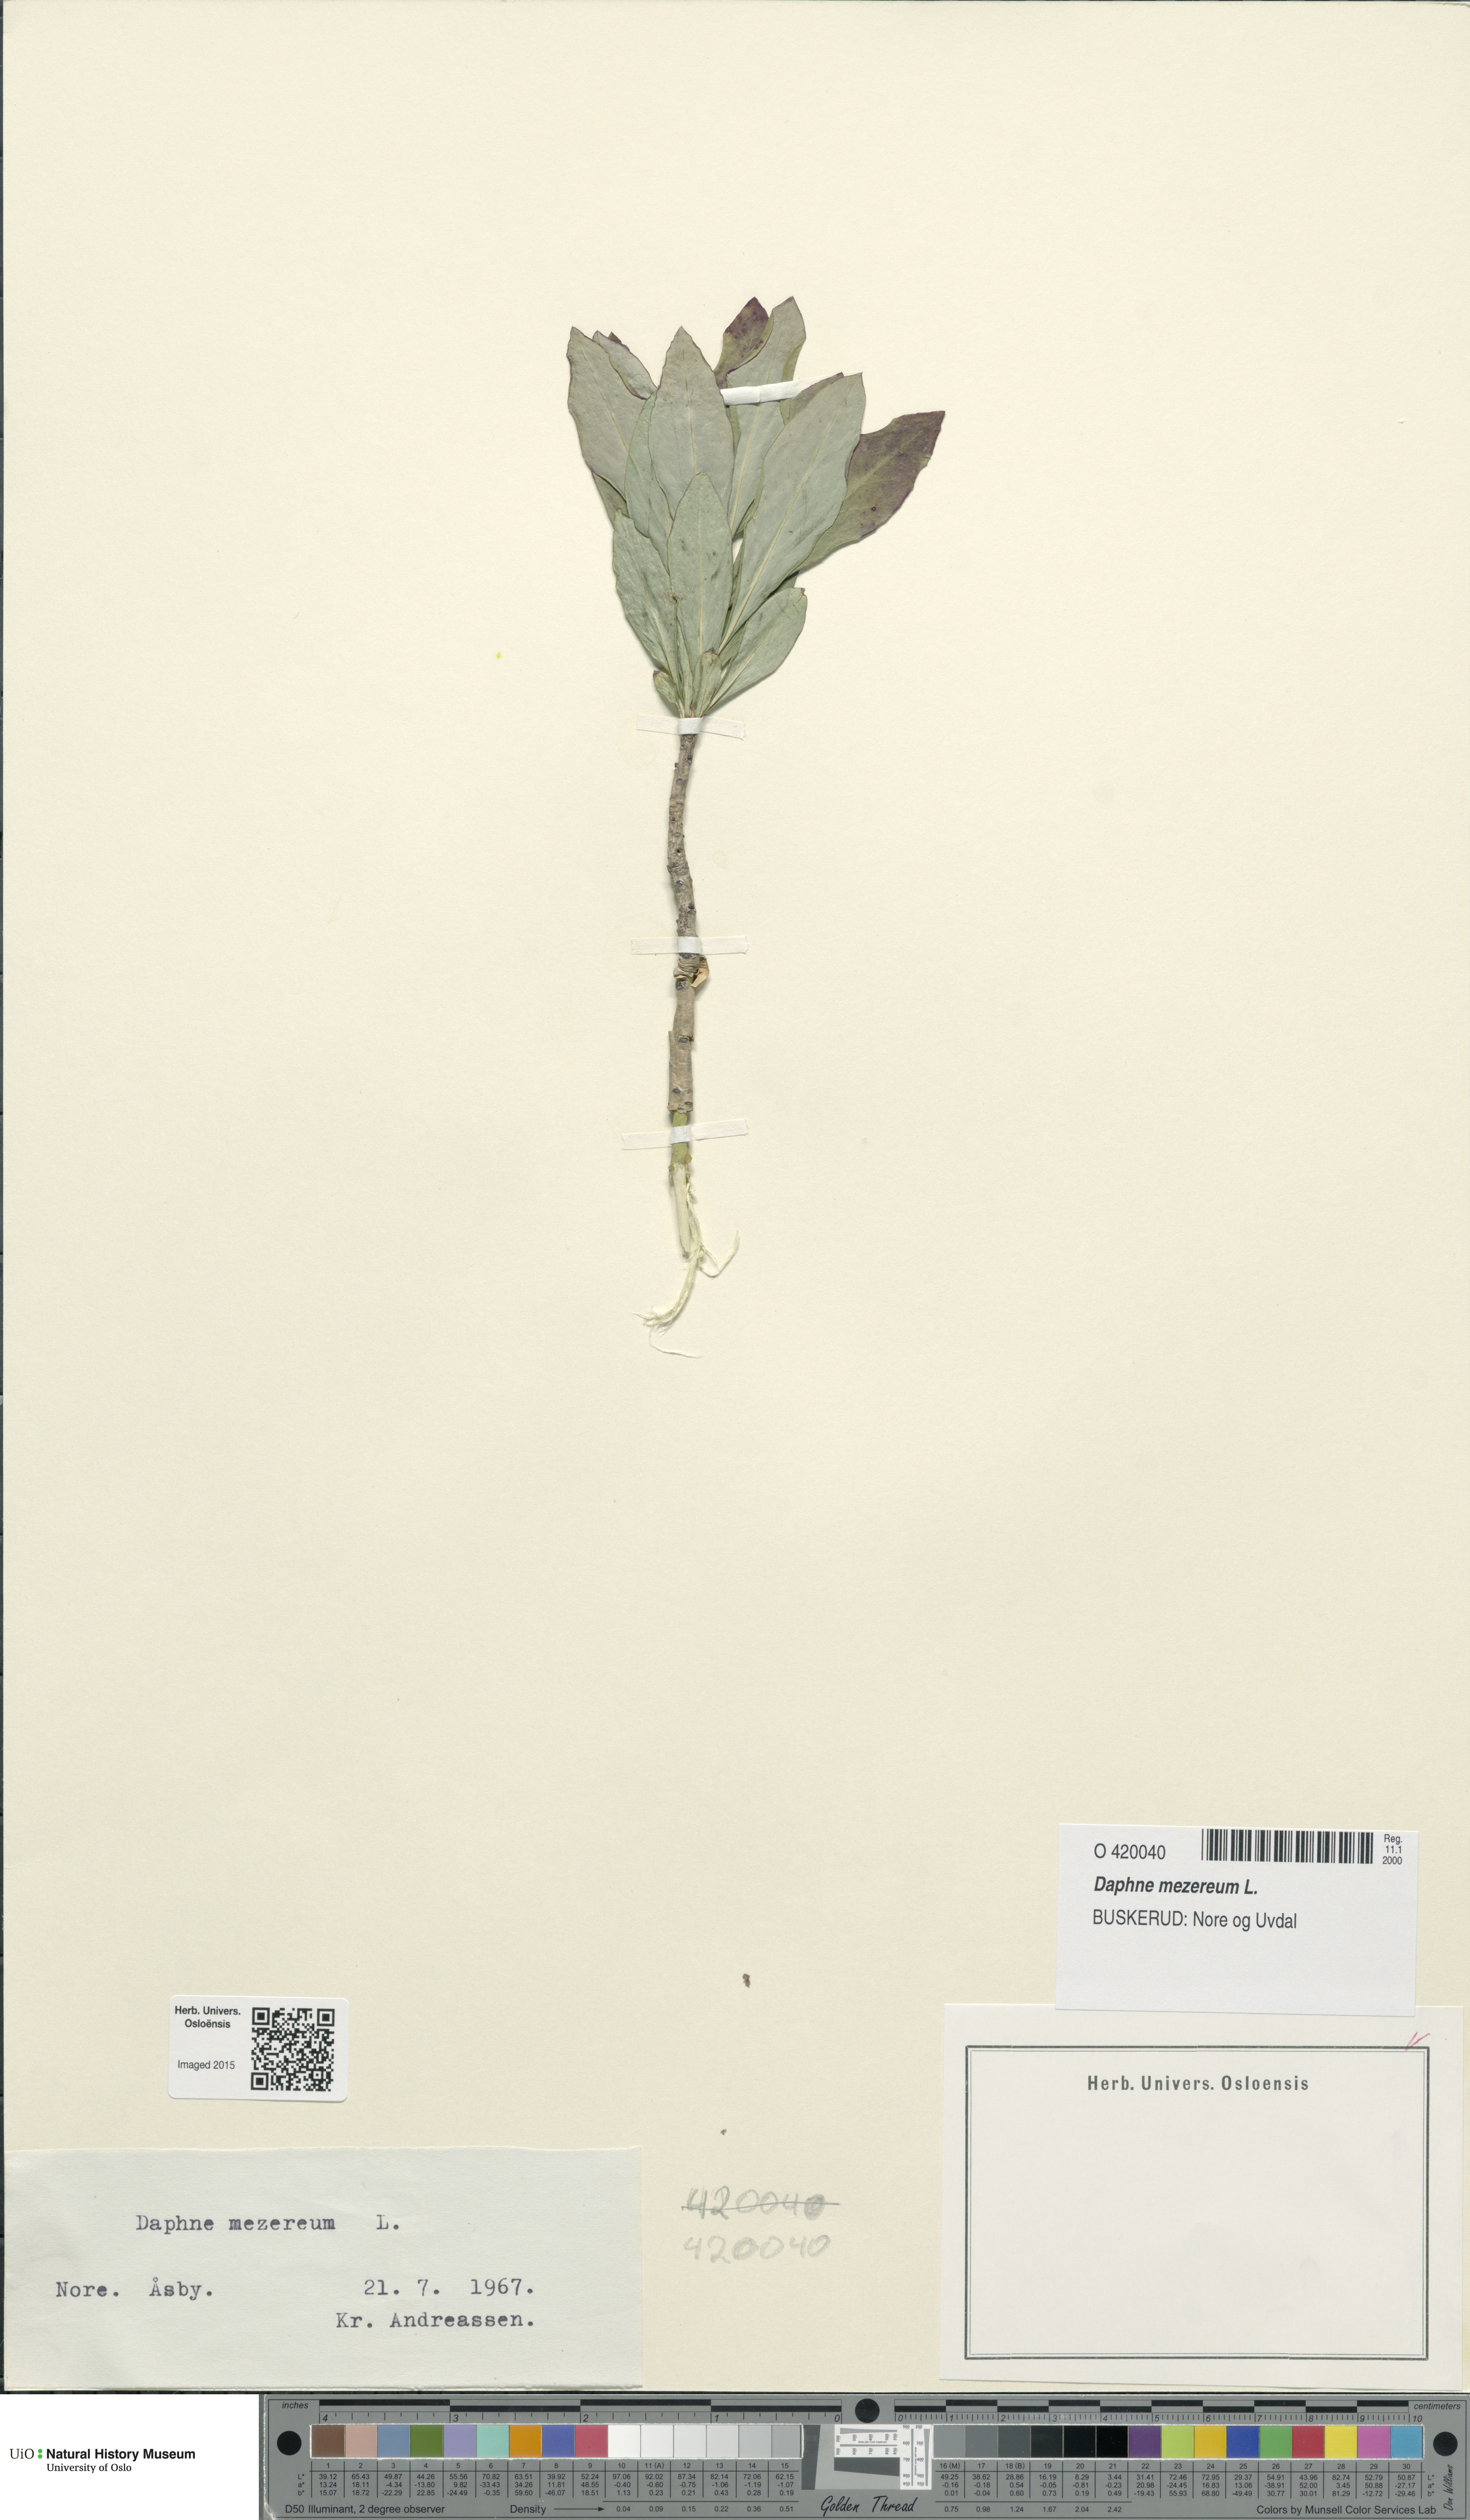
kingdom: Plantae
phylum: Tracheophyta
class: Magnoliopsida
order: Malvales
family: Thymelaeaceae
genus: Daphne
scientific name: Daphne mezereum
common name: Mezereon
